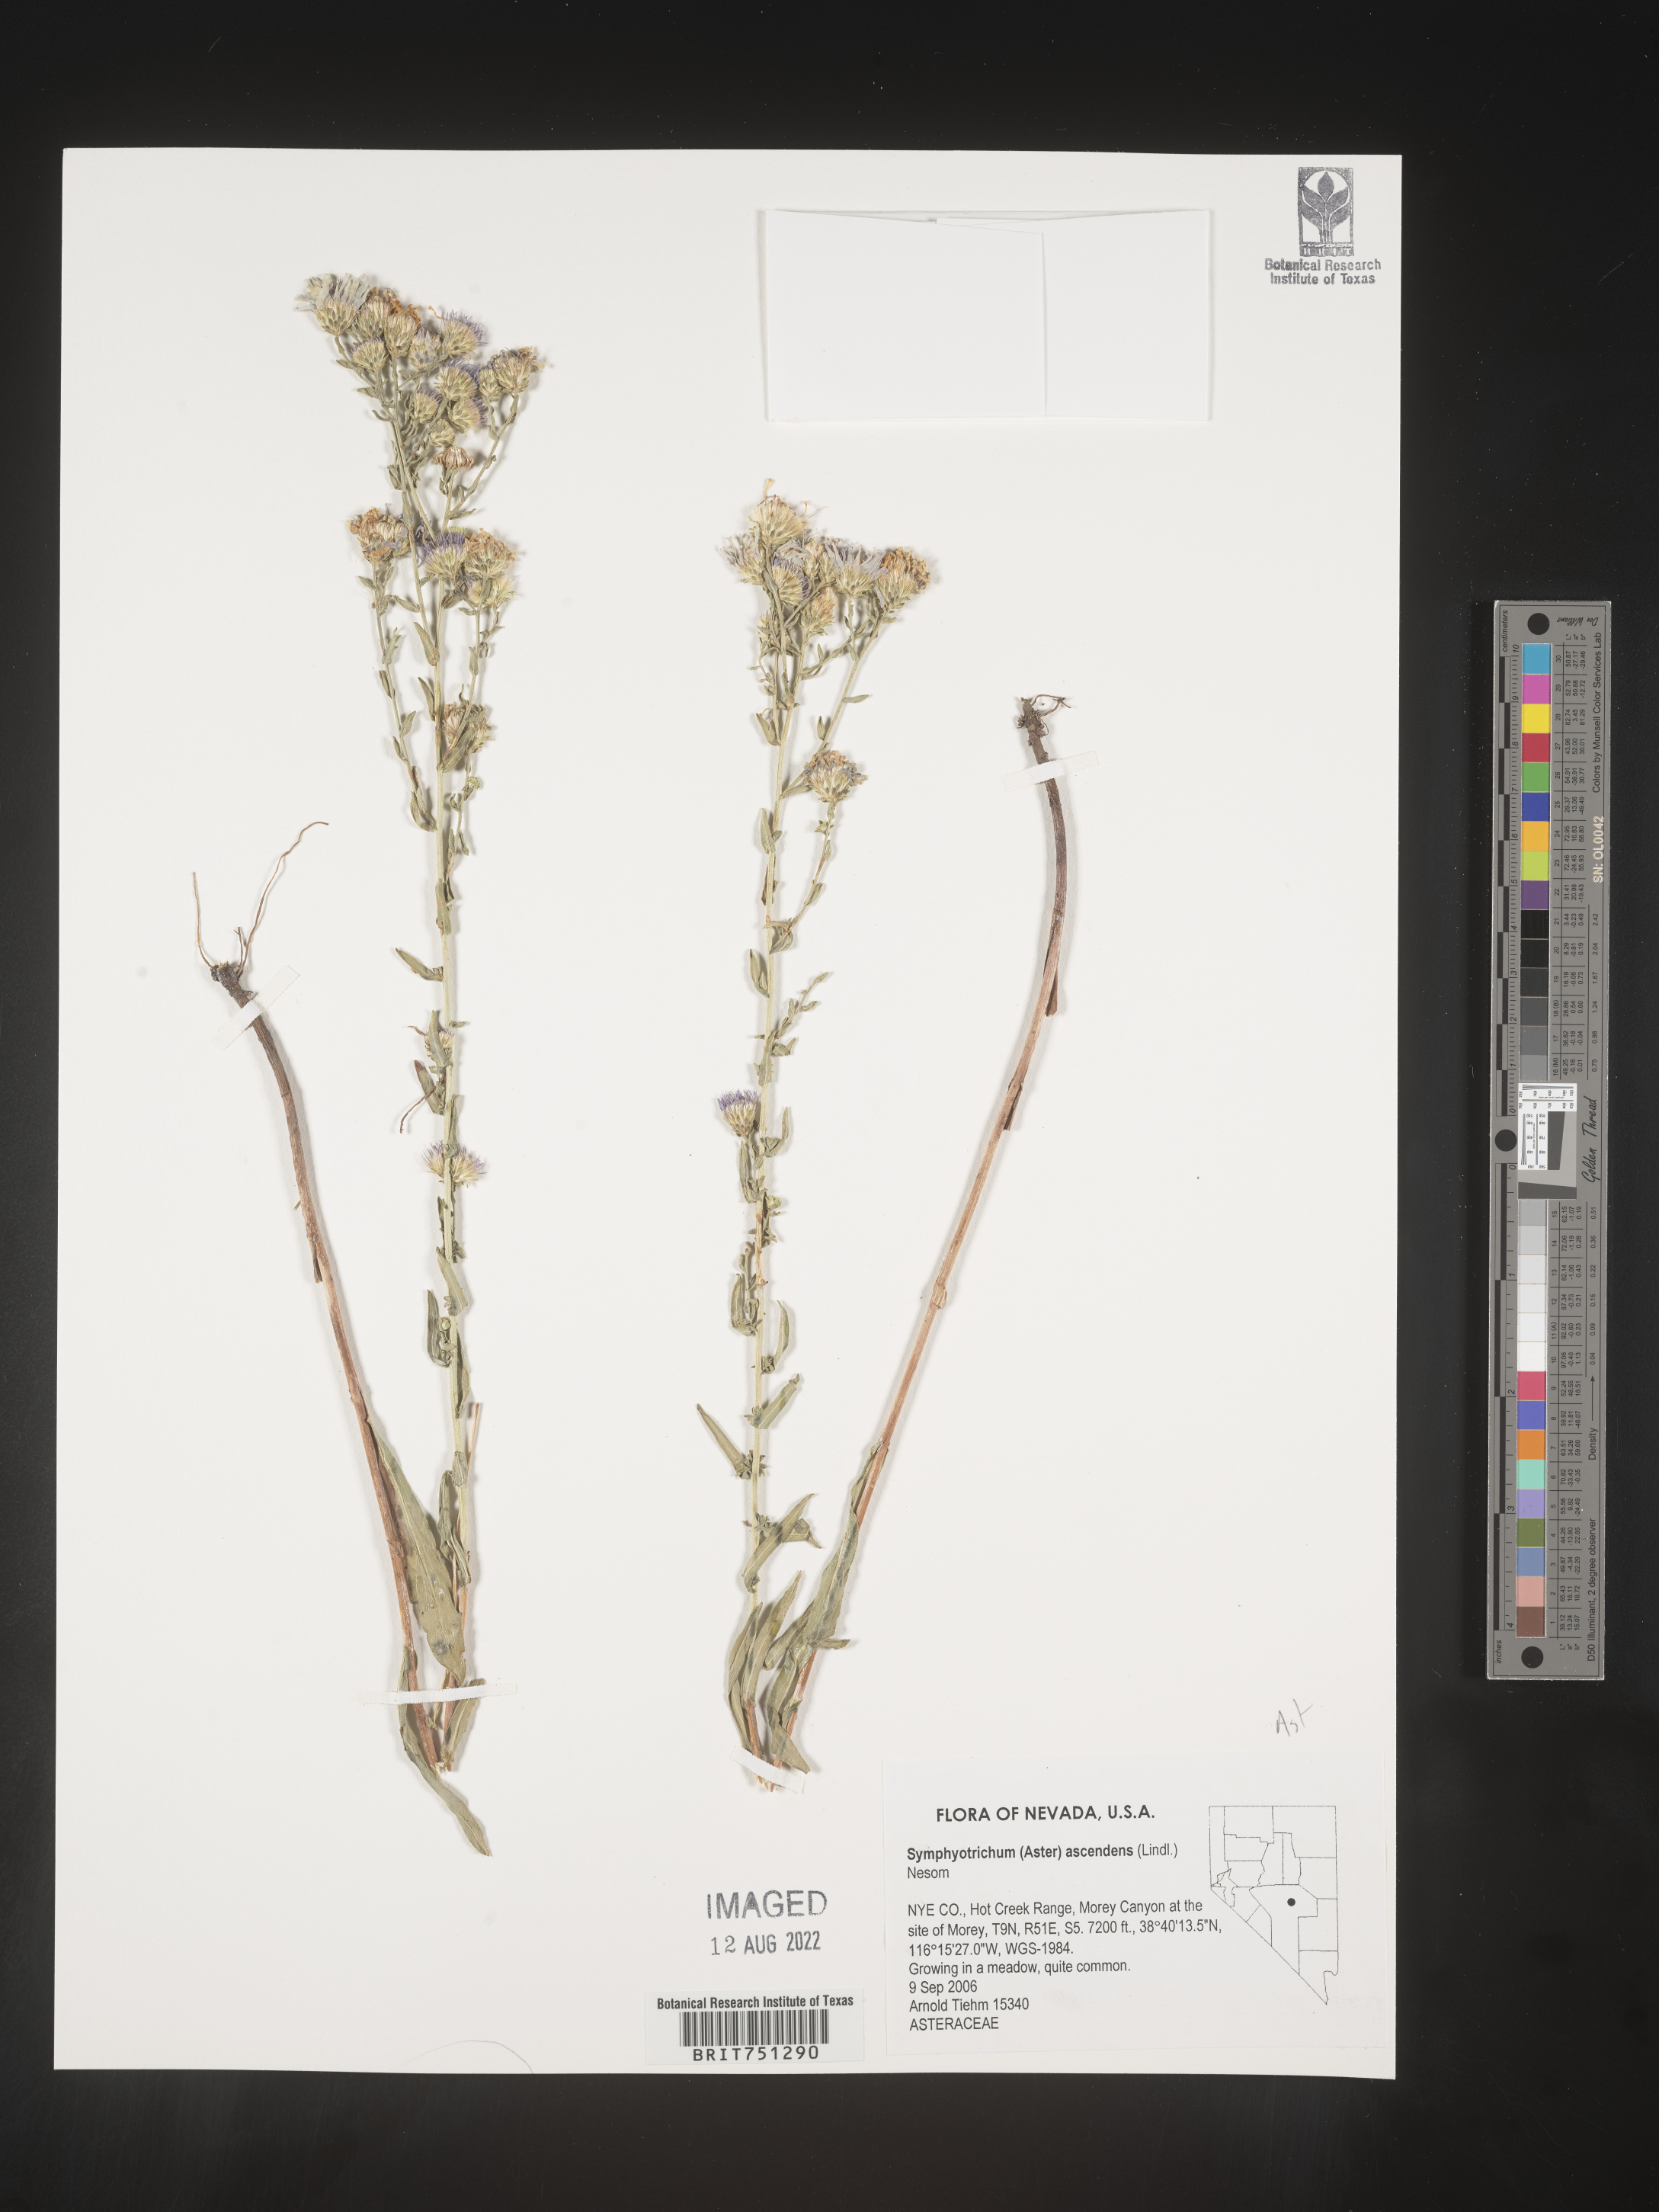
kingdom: Plantae
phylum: Tracheophyta
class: Magnoliopsida
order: Asterales
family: Asteraceae
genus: Symphyotrichum
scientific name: Symphyotrichum ascendens
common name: Intermountain aster
